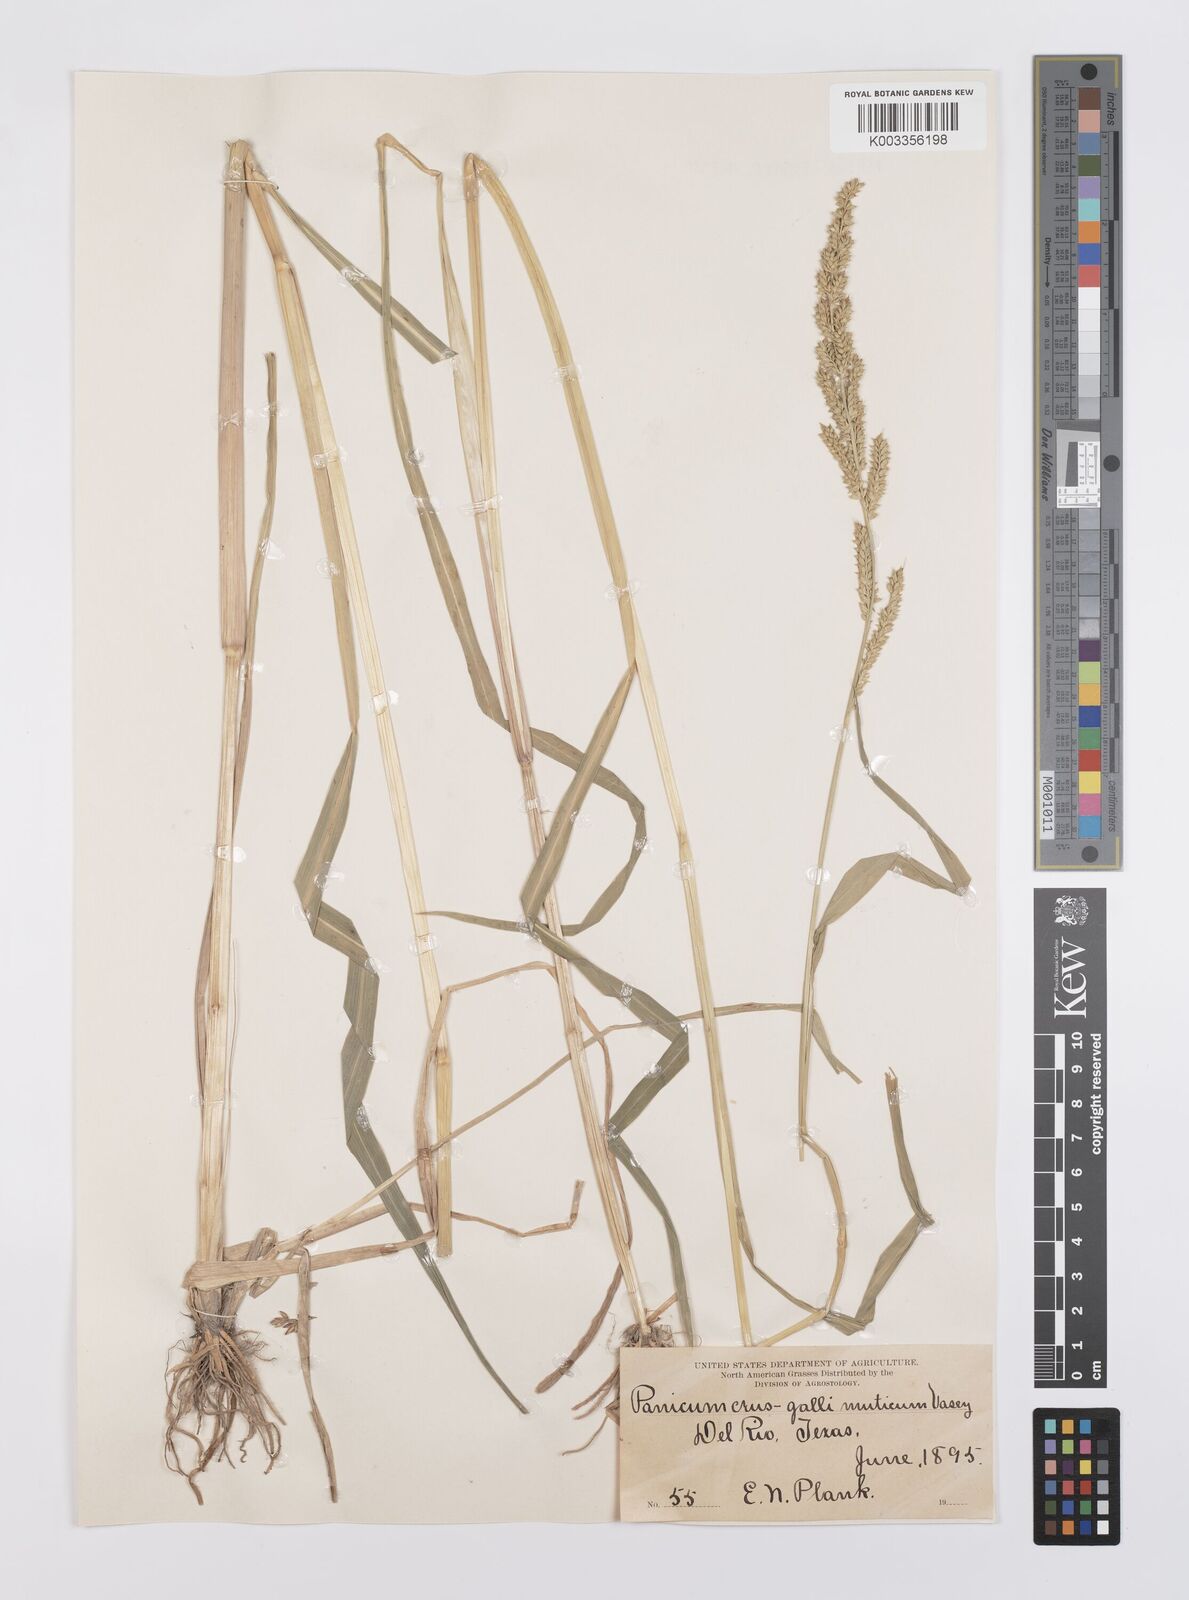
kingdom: Plantae
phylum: Tracheophyta
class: Liliopsida
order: Poales
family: Poaceae
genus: Echinochloa
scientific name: Echinochloa crus-galli
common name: Cockspur
